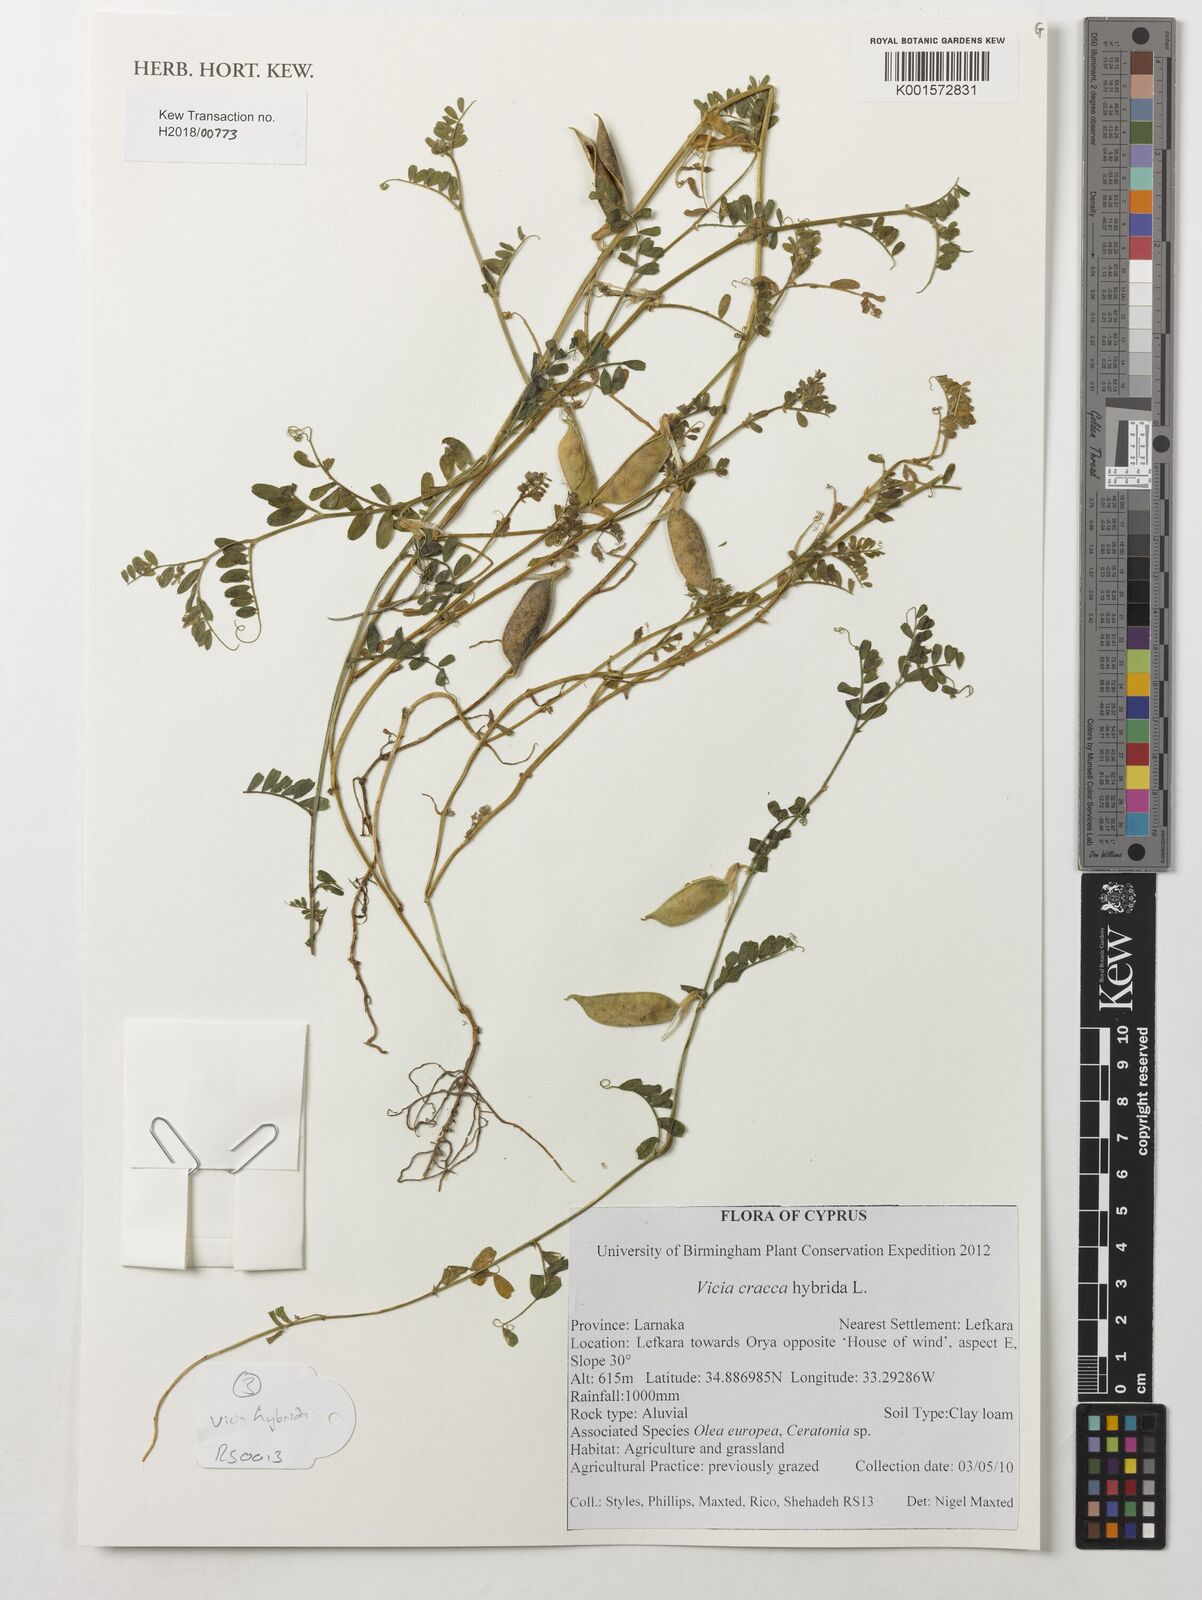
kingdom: Plantae
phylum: Tracheophyta
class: Magnoliopsida
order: Fabales
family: Fabaceae
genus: Vicia
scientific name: Vicia cracca
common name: Bird vetch
